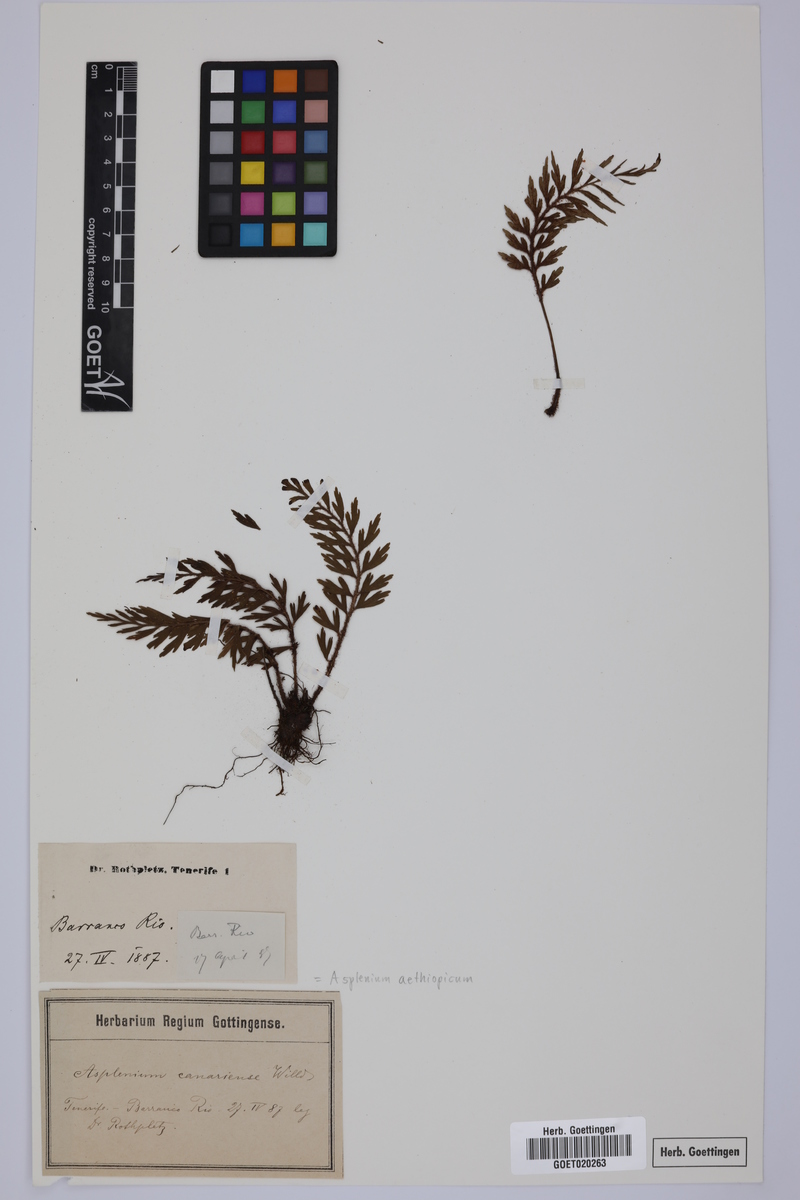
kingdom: Plantae
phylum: Tracheophyta
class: Polypodiopsida
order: Polypodiales
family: Aspleniaceae
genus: Asplenium
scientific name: Asplenium aethiopicum
